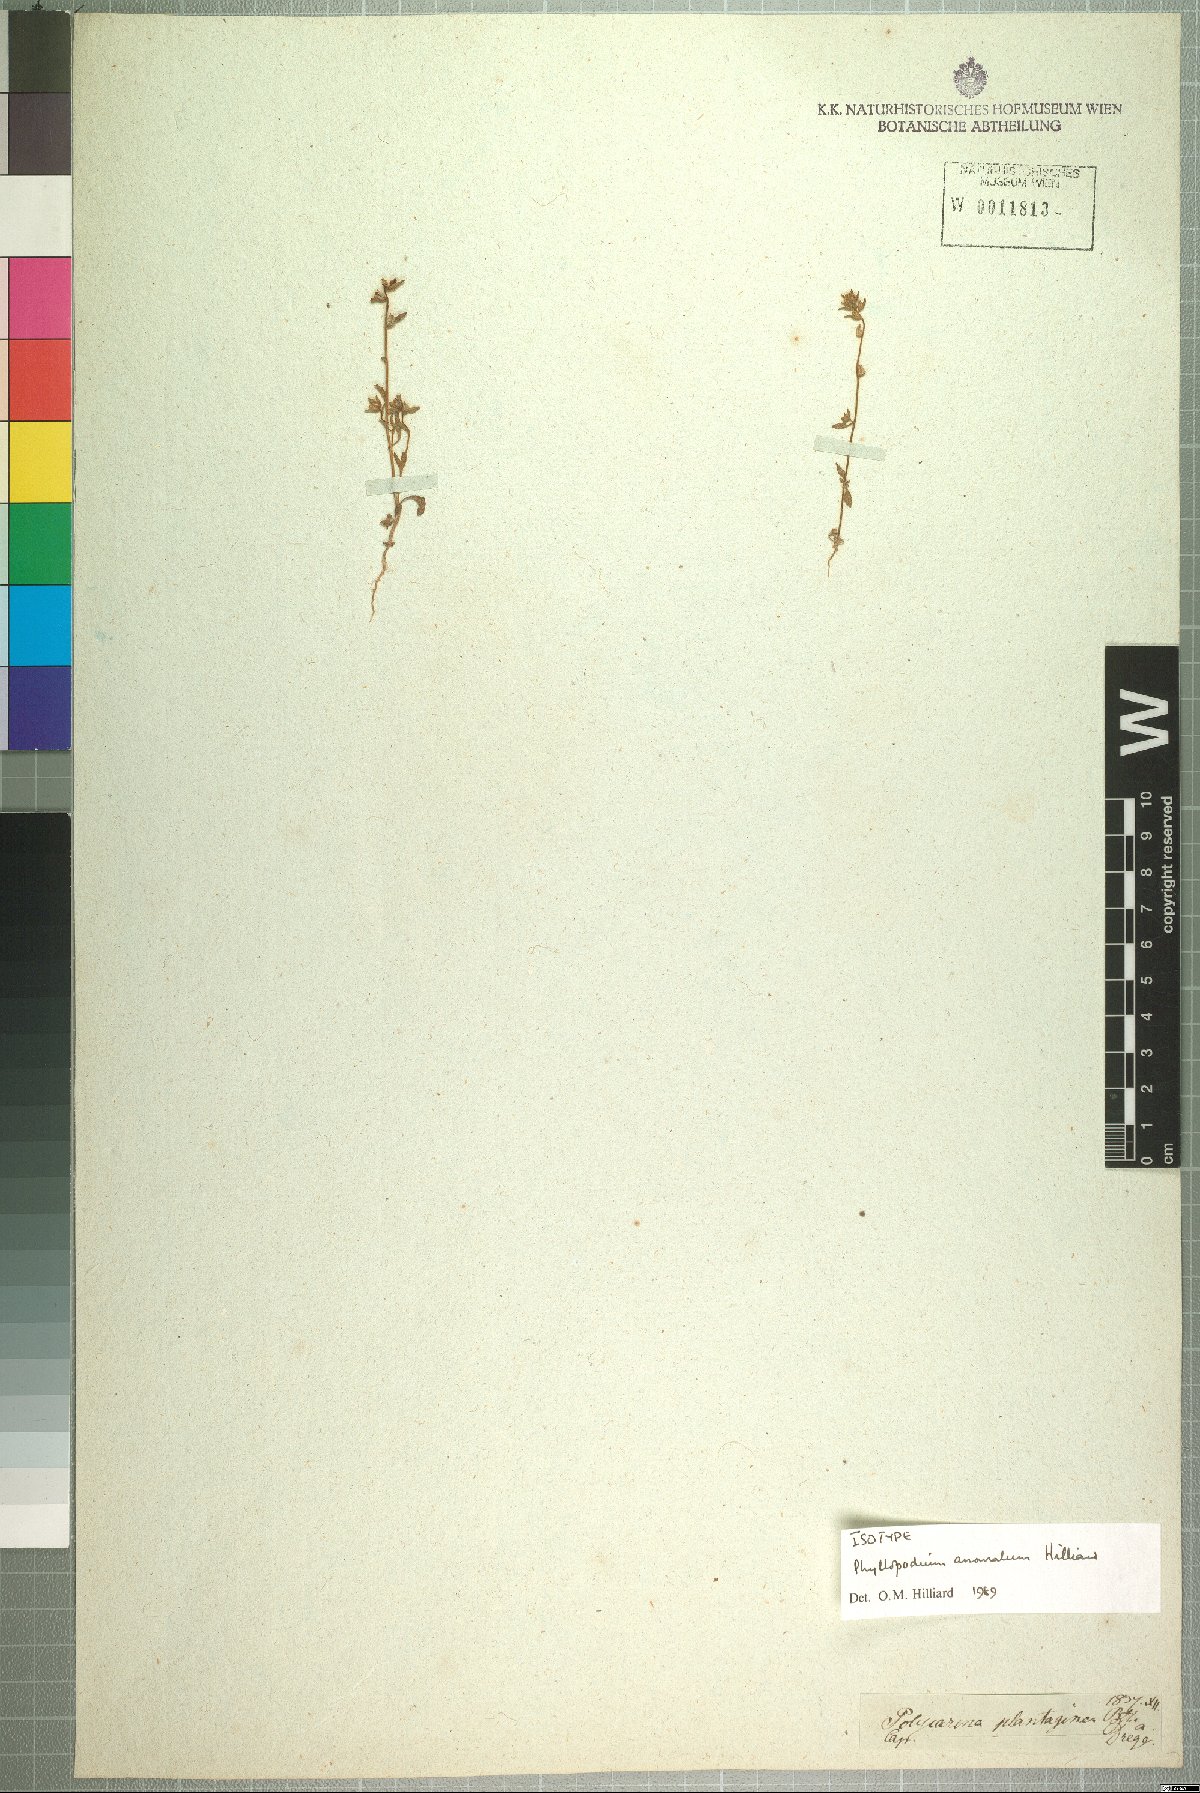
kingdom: Plantae
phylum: Tracheophyta
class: Magnoliopsida
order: Lamiales
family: Scrophulariaceae
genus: Phyllopodium
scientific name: Phyllopodium anomalum
